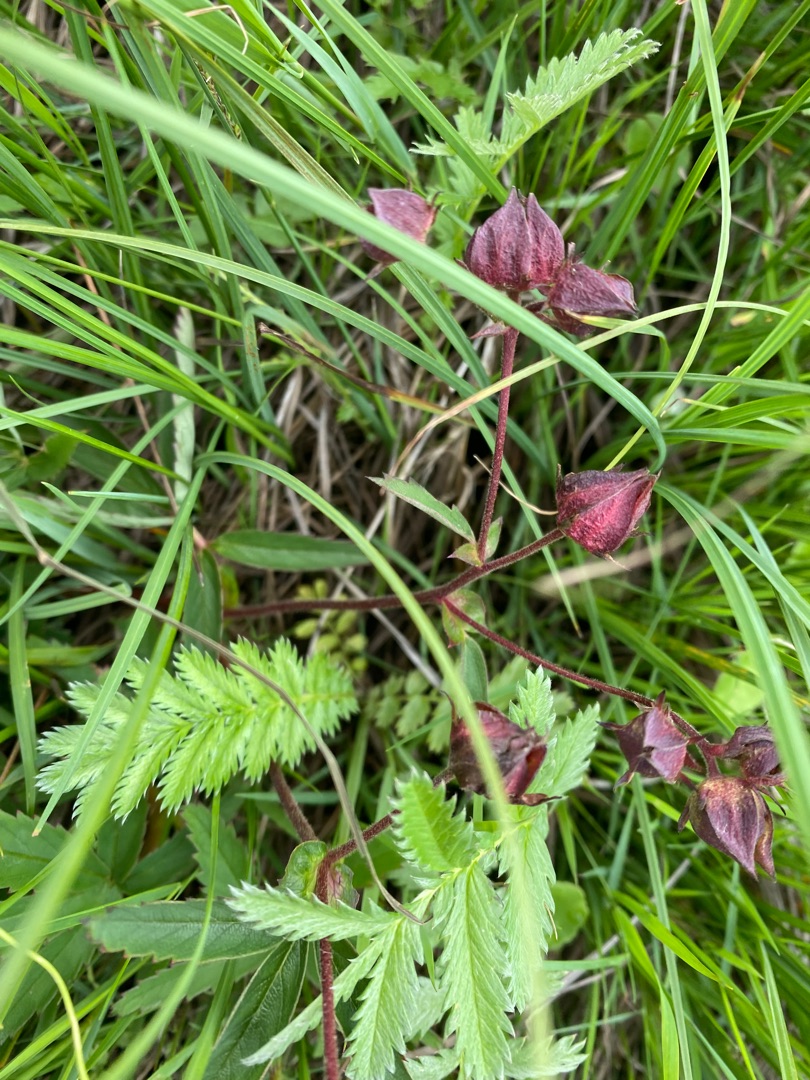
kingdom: Plantae
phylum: Tracheophyta
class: Magnoliopsida
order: Rosales
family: Rosaceae
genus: Comarum
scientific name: Comarum palustre
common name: Kragefod
